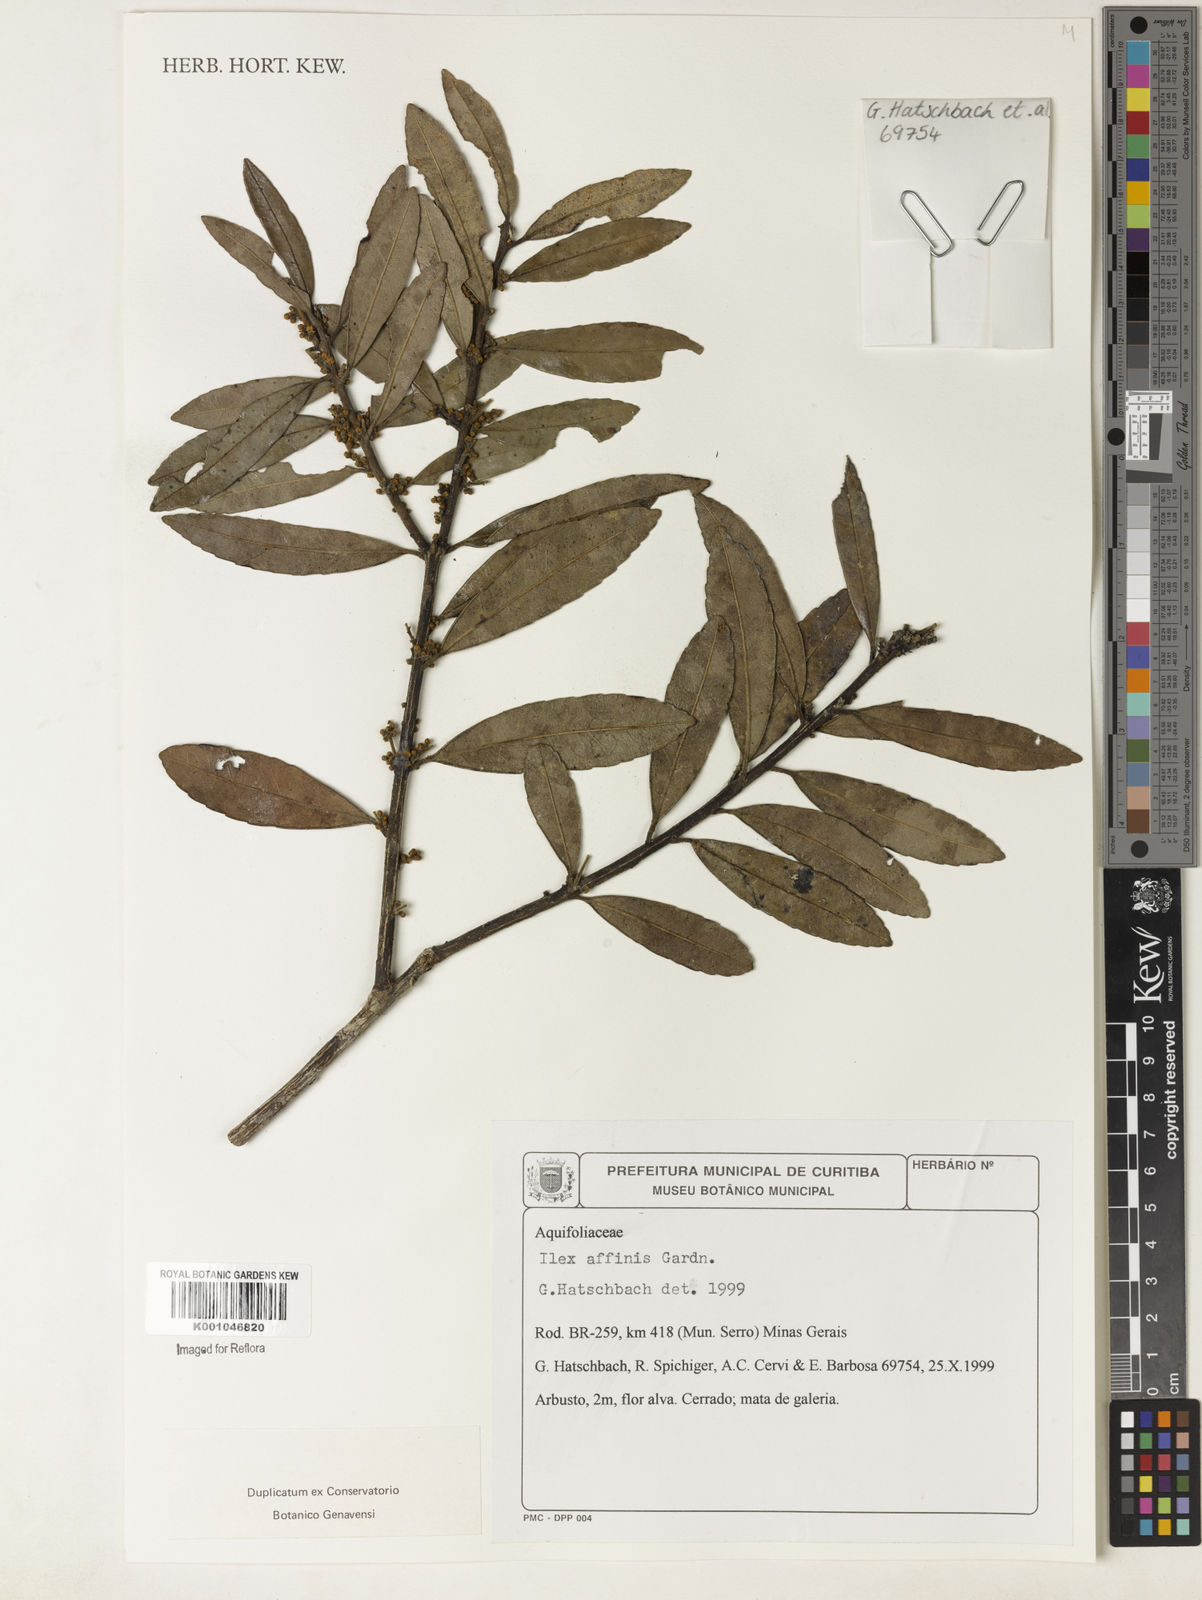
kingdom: Plantae
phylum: Tracheophyta
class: Magnoliopsida
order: Aquifoliales
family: Aquifoliaceae
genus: Ilex
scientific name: Ilex affinis
